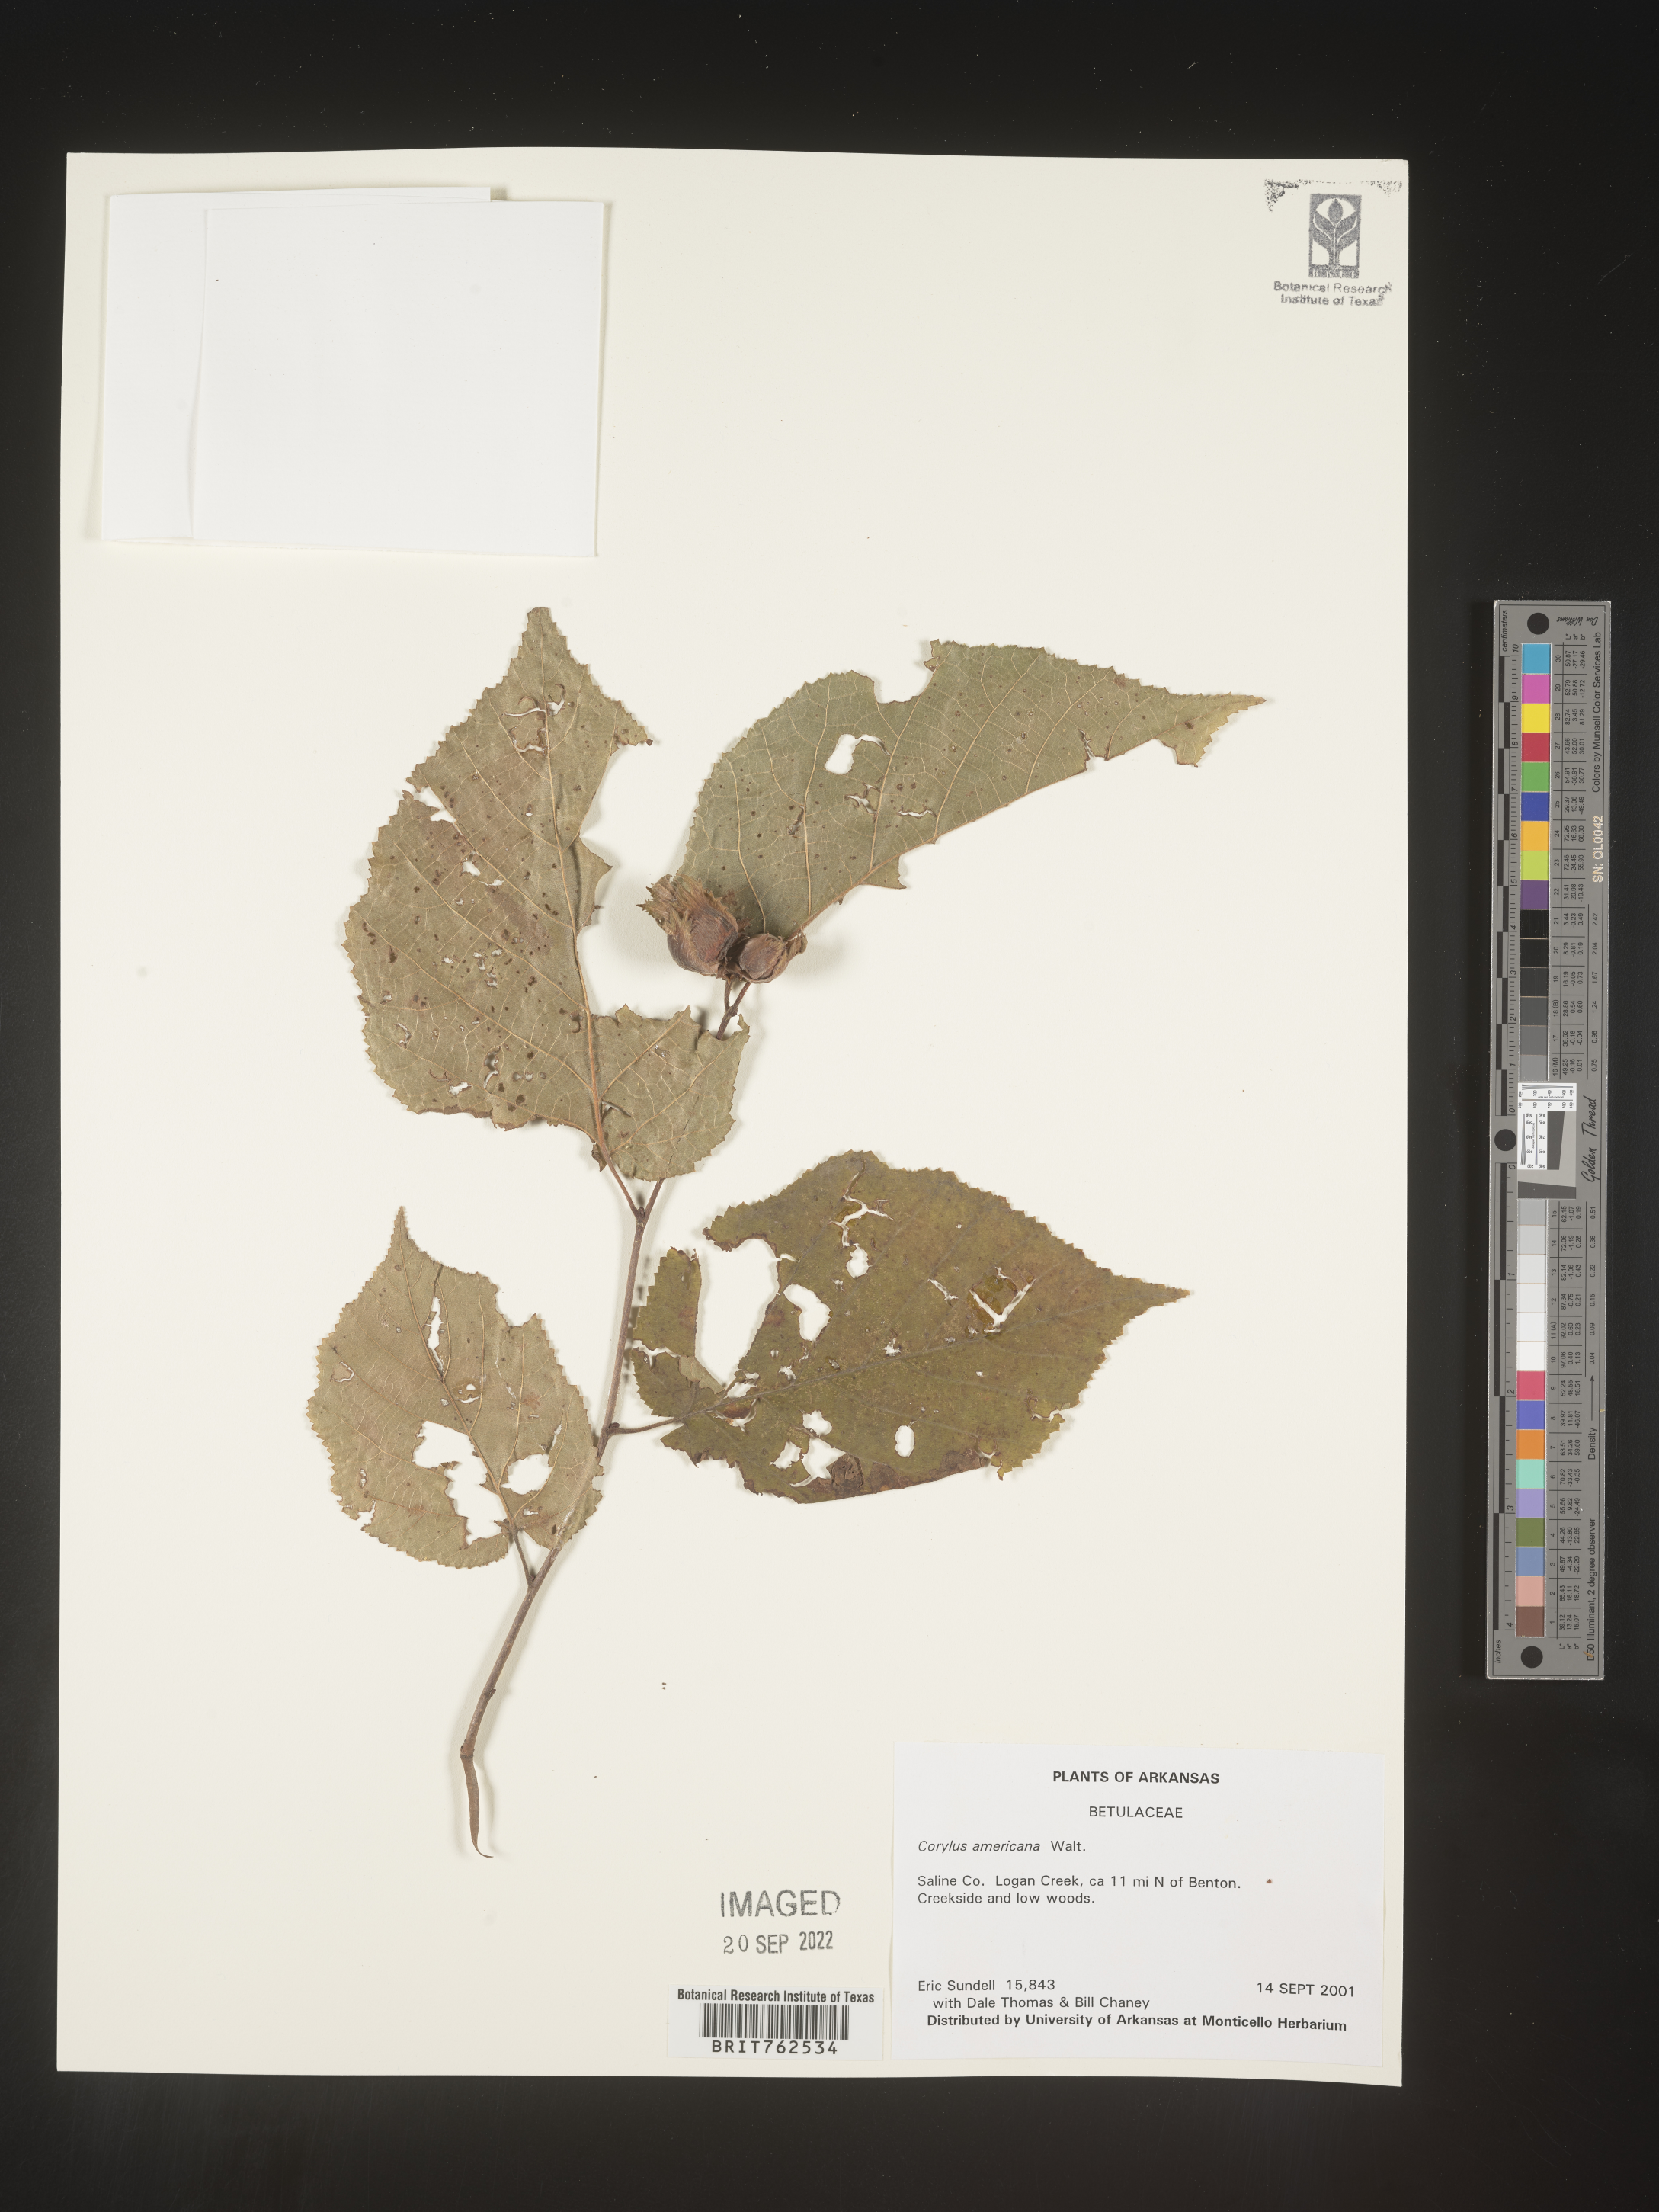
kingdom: Plantae
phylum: Tracheophyta
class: Magnoliopsida
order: Fagales
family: Betulaceae
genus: Corylus
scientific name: Corylus americana
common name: American hazel
